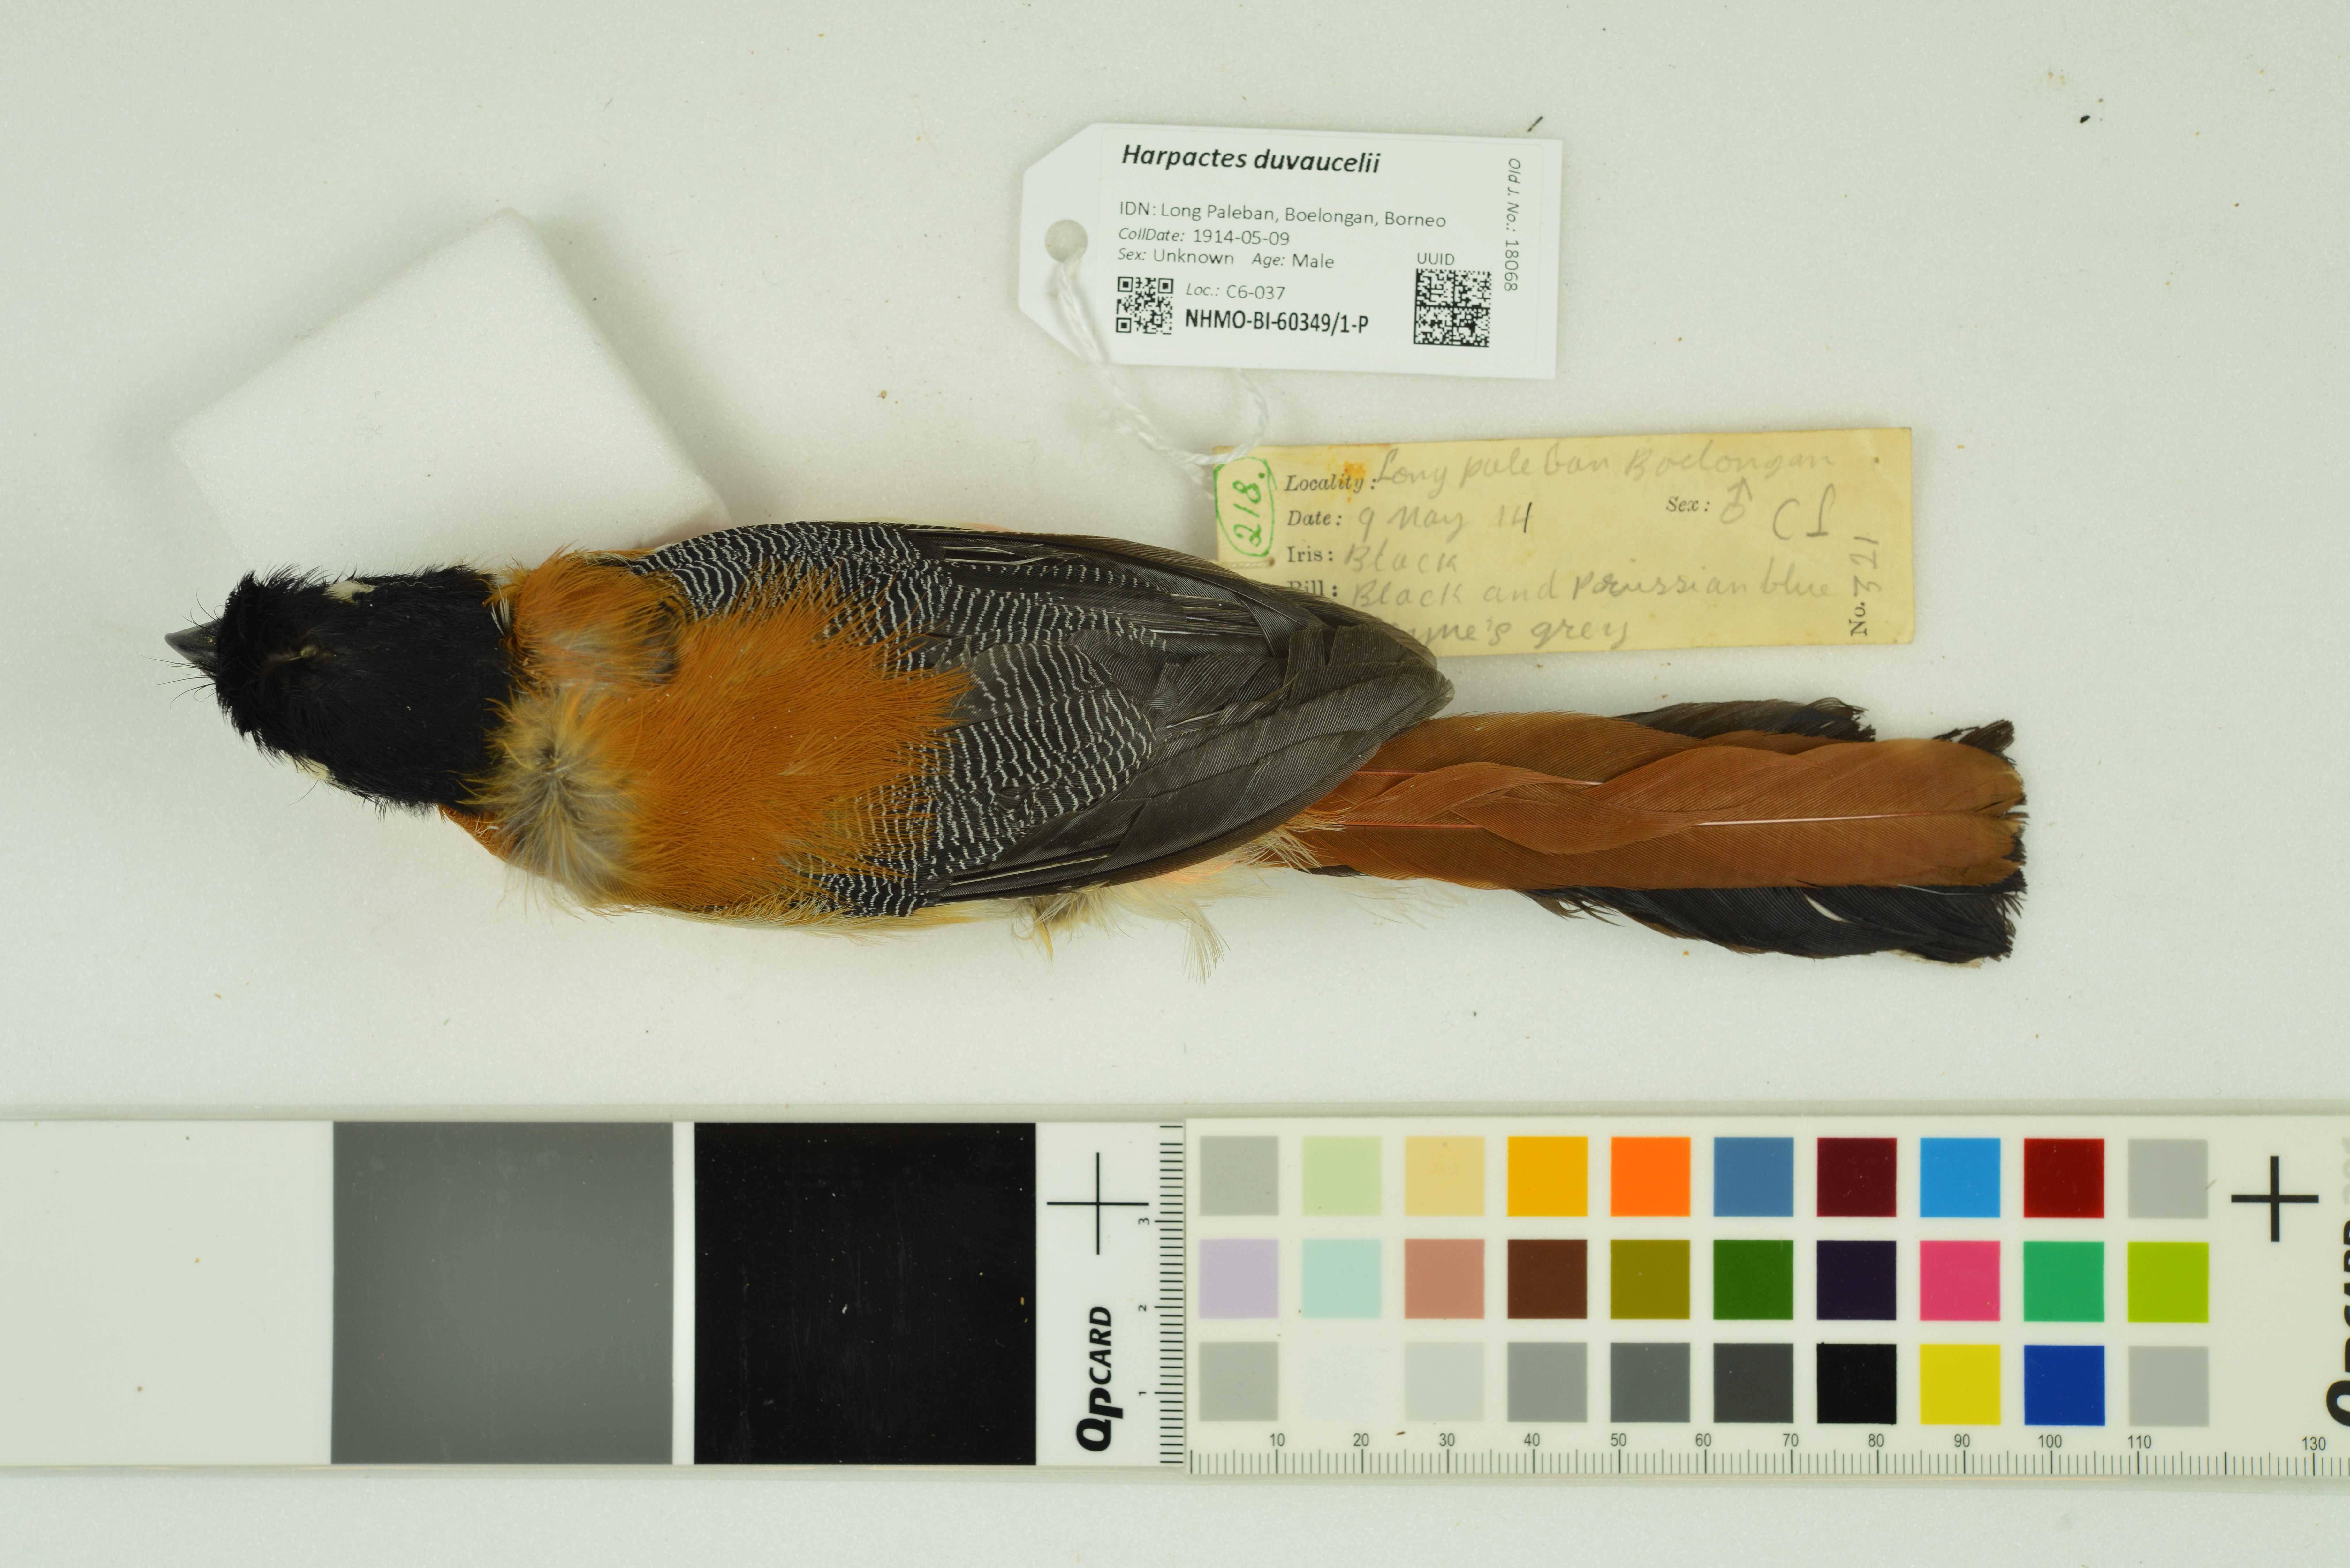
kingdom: Animalia
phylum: Chordata
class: Aves
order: Trogoniformes
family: Trogonidae
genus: Harpactes
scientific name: Harpactes duvaucelii
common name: Scarlet-rumped trogon
